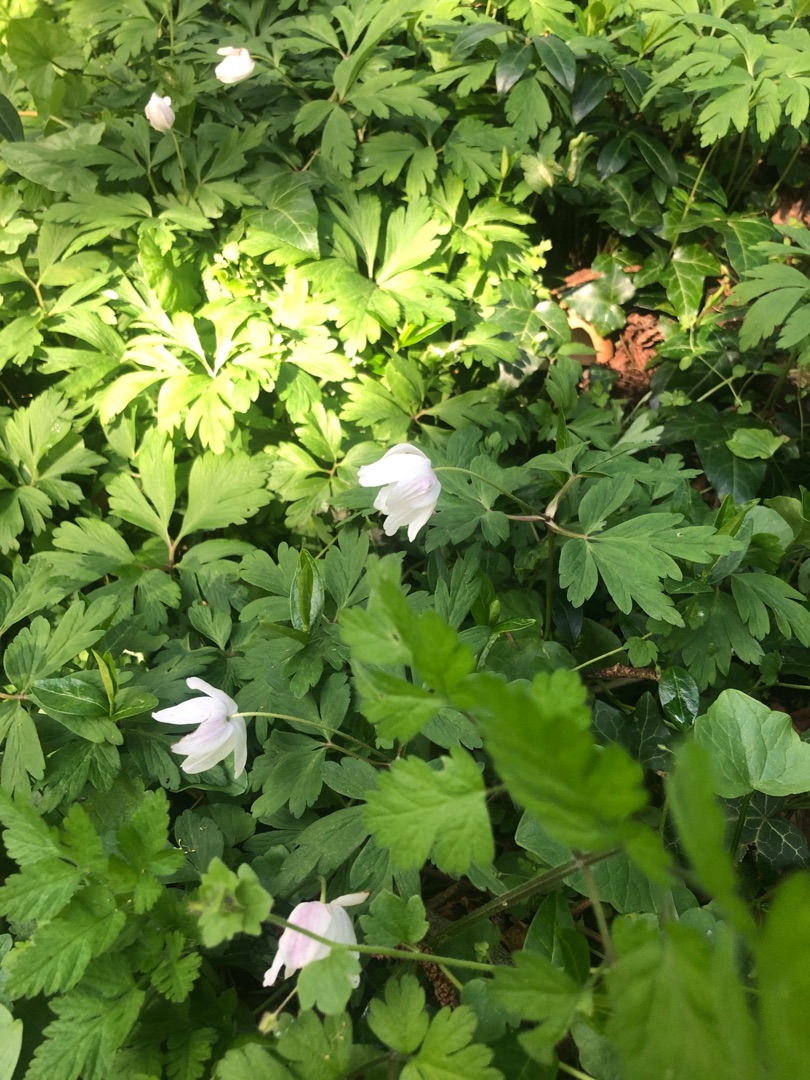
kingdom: Plantae
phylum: Tracheophyta
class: Magnoliopsida
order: Ranunculales
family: Ranunculaceae
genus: Anemone
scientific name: Anemone nemorosa
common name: Hvid anemone
